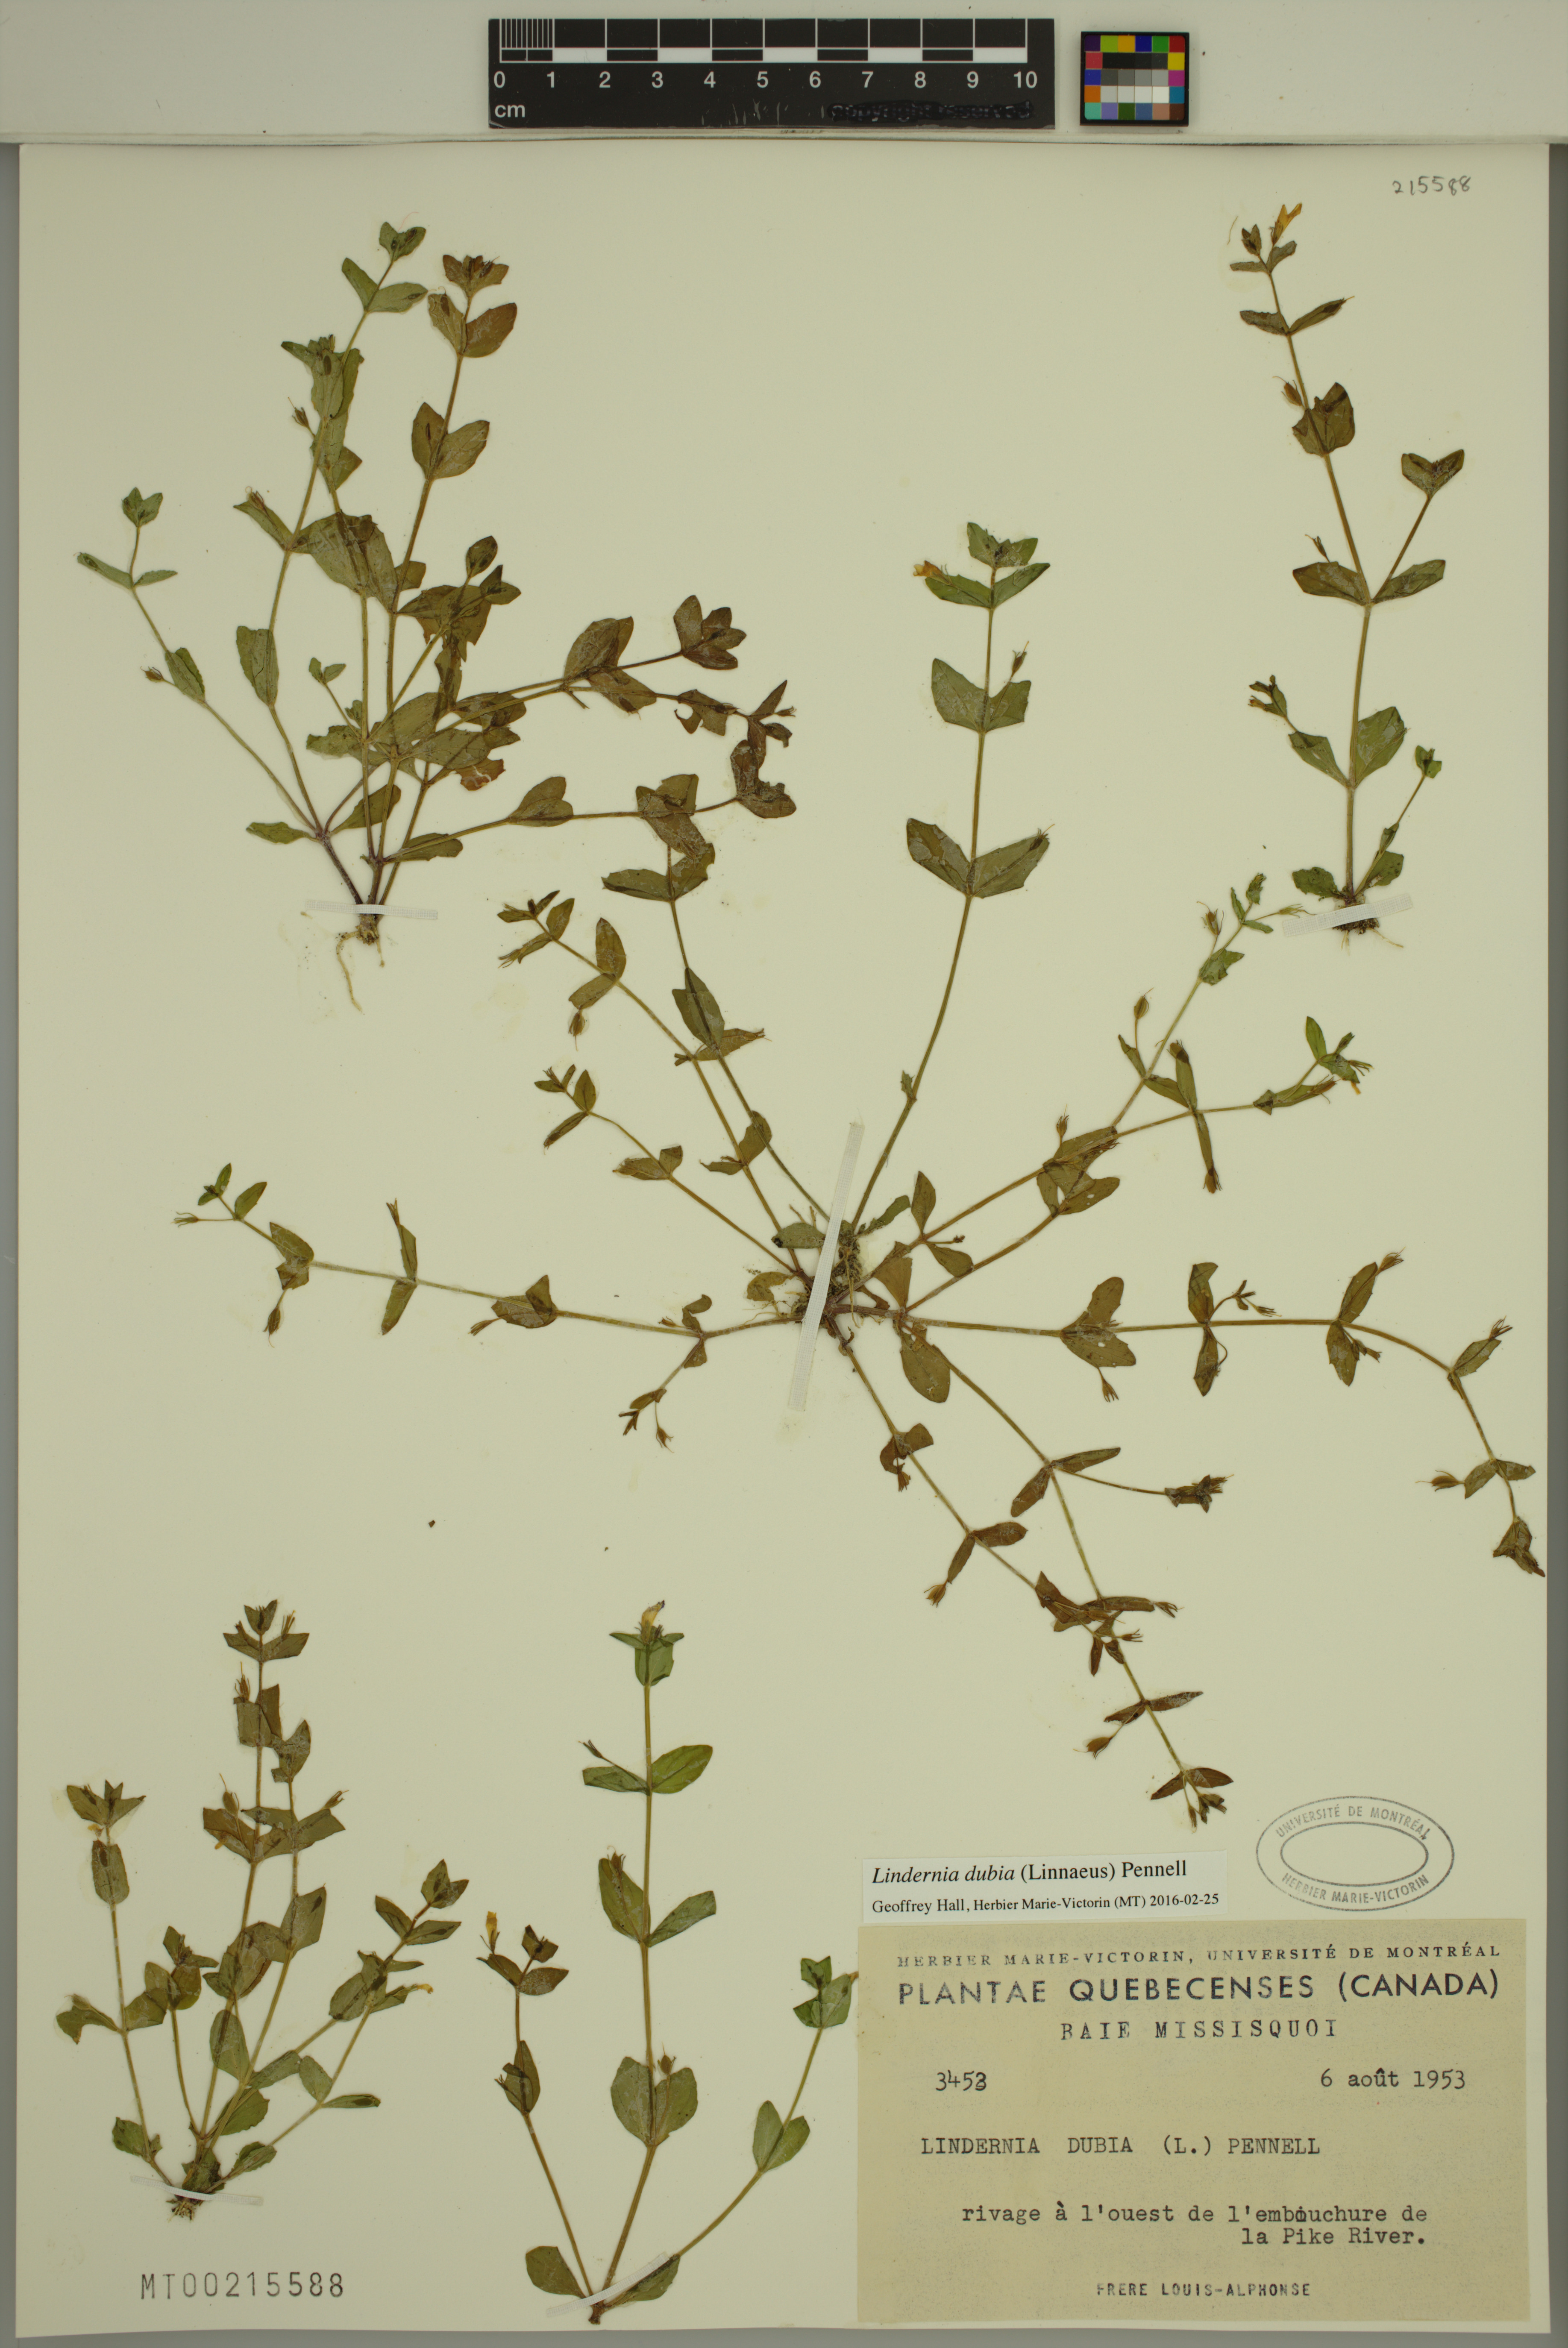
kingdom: Plantae
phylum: Tracheophyta
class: Magnoliopsida
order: Lamiales
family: Linderniaceae
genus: Lindernia
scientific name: Lindernia dubia
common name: Annual false pimpernel
